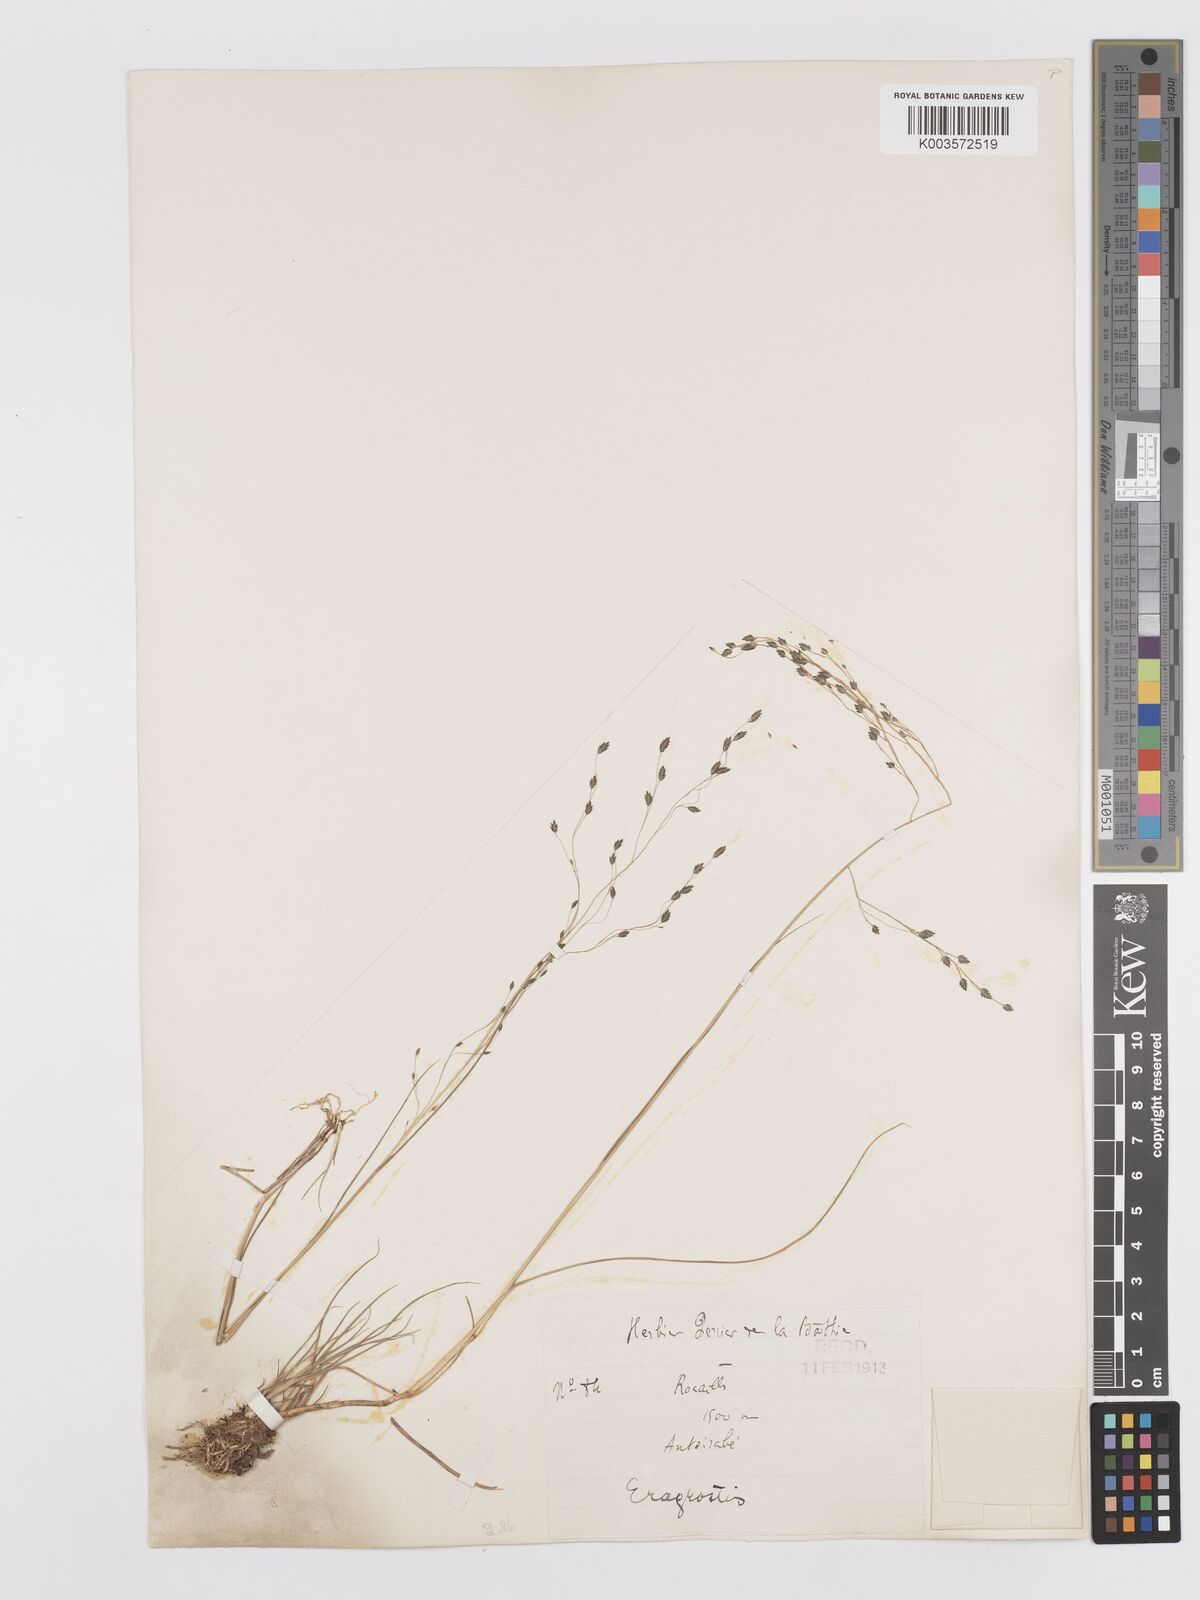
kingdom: Plantae
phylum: Tracheophyta
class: Liliopsida
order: Poales
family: Poaceae
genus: Eragrostis
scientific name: Eragrostis hildebrandtii
